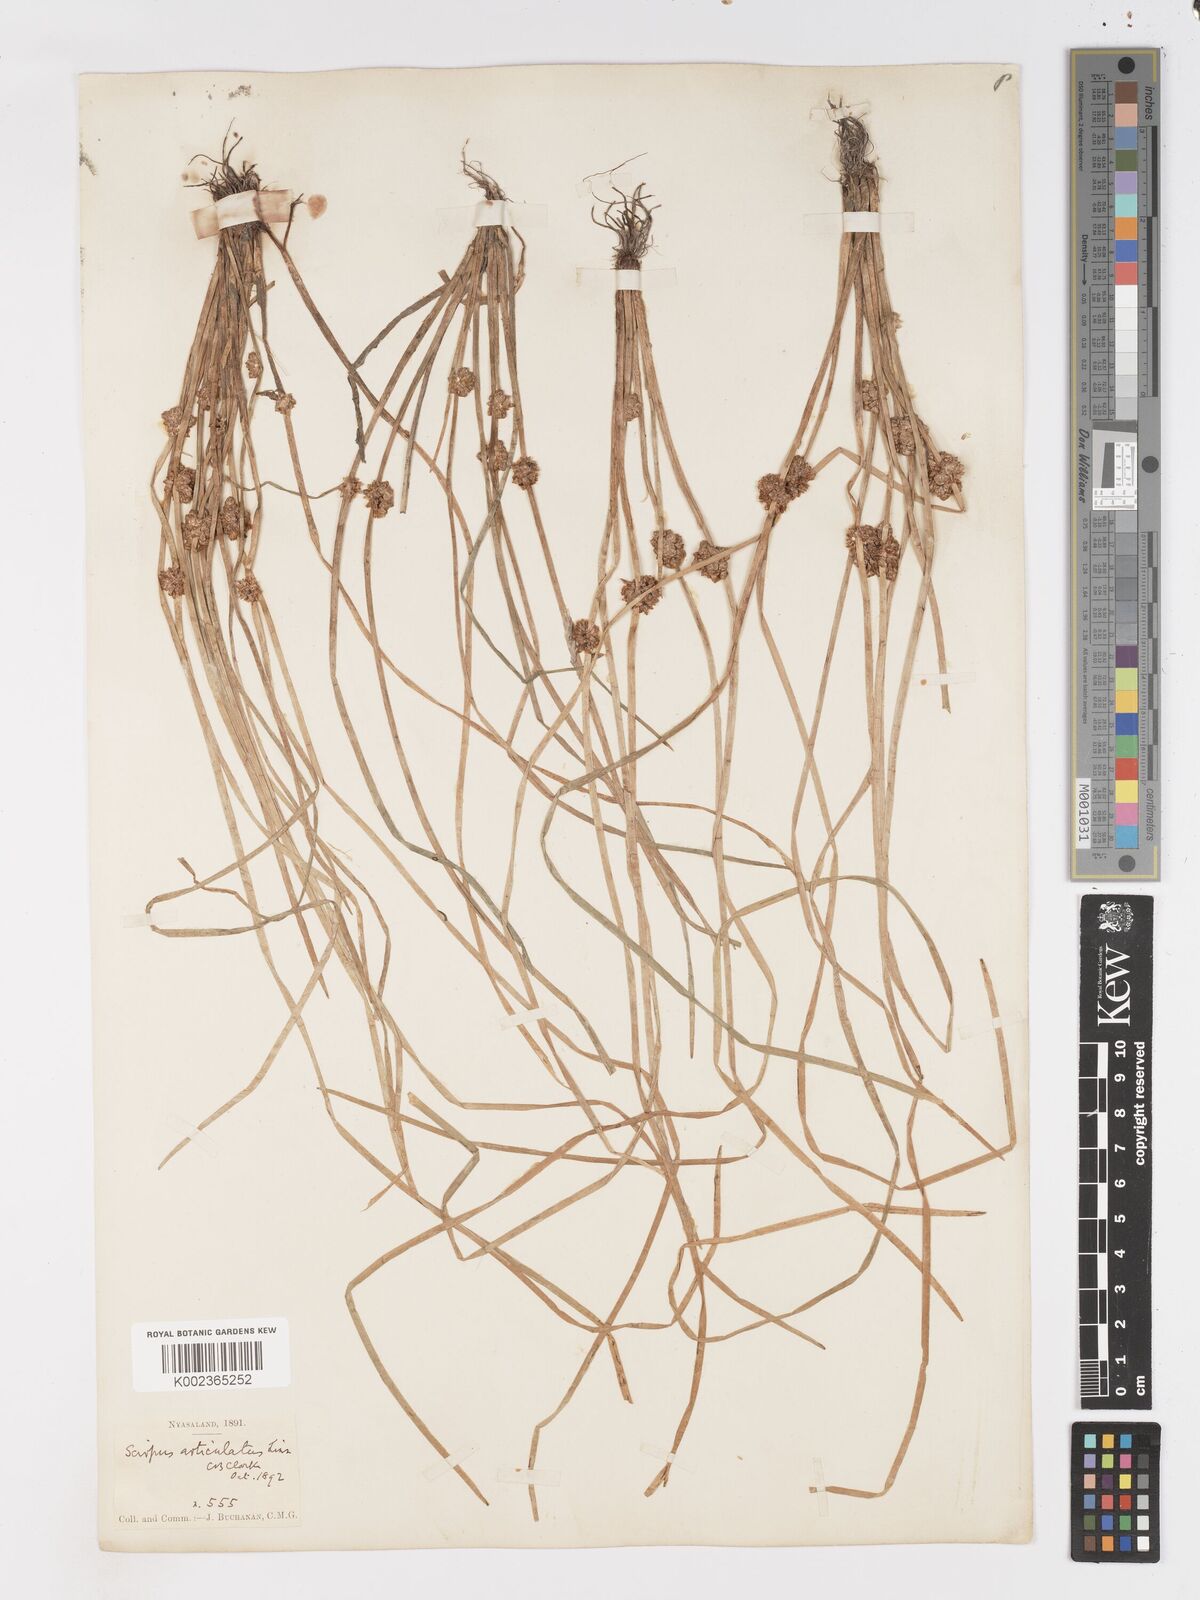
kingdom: Plantae
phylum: Tracheophyta
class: Liliopsida
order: Poales
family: Cyperaceae
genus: Schoenoplectiella
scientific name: Schoenoplectiella senegalensis
